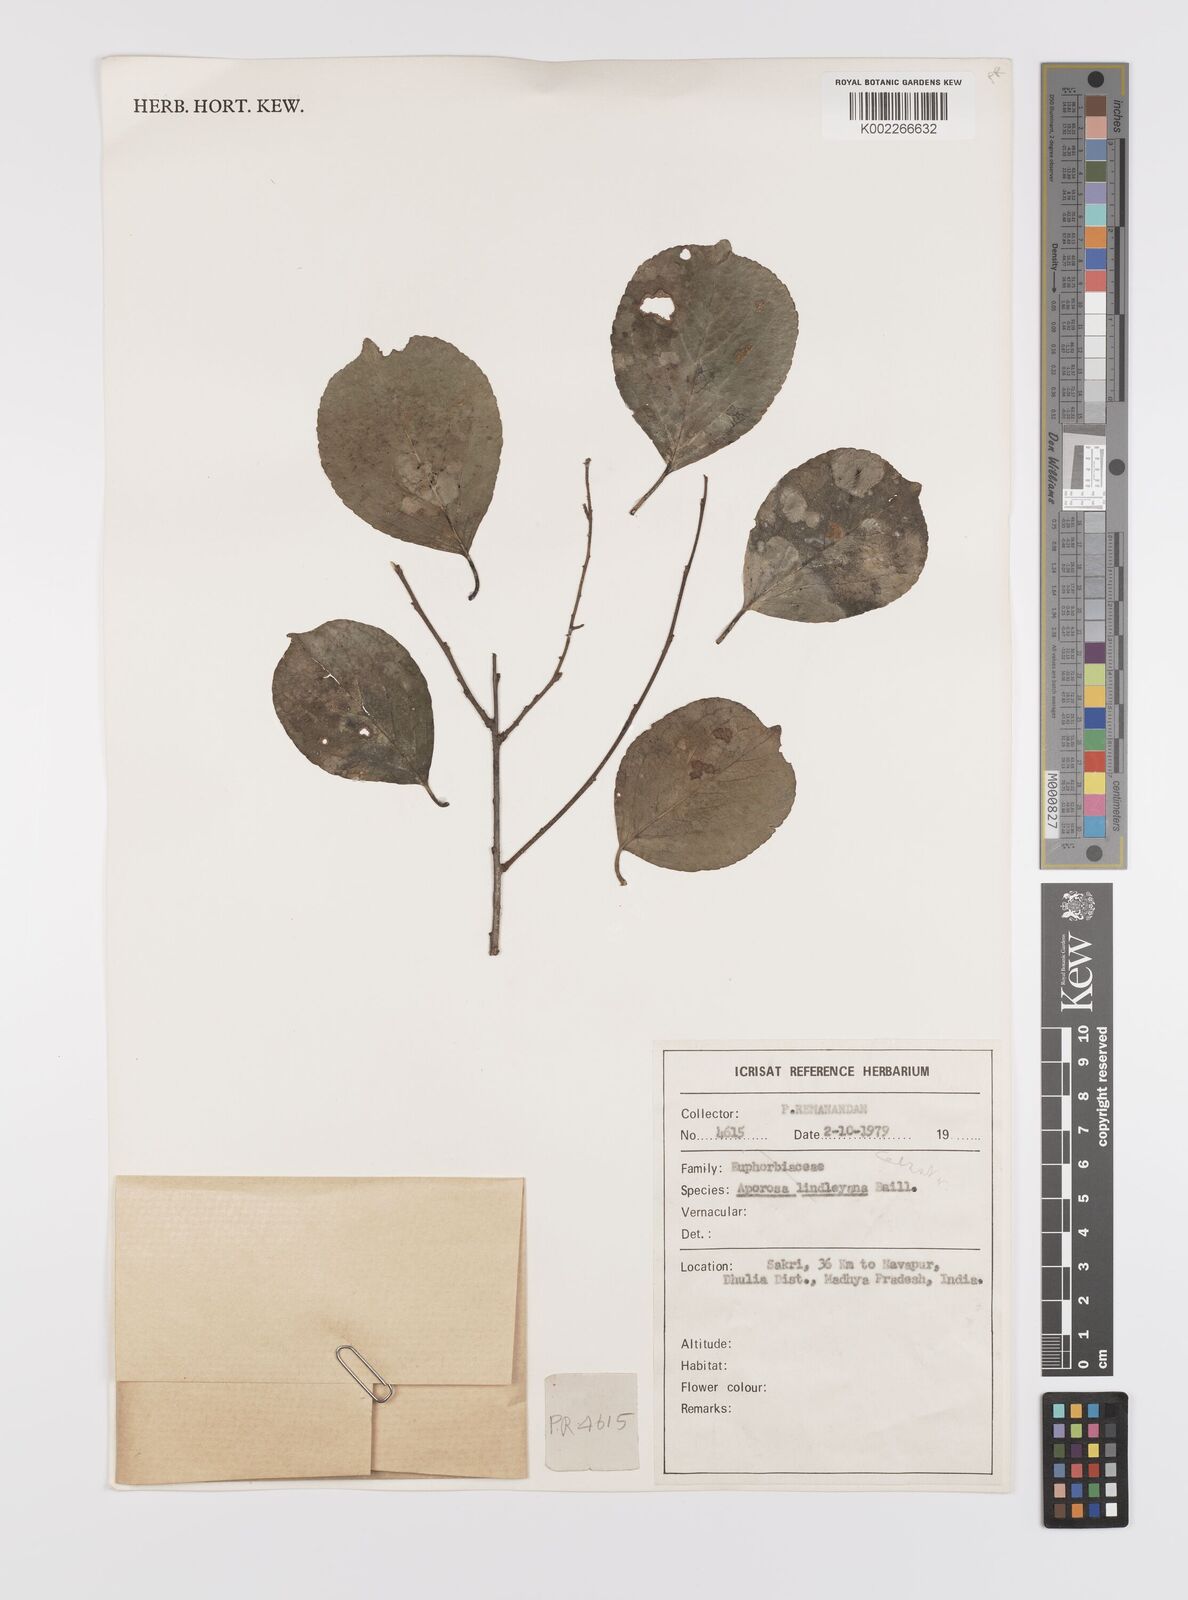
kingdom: Plantae
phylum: Tracheophyta
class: Magnoliopsida
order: Celastrales
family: Celastraceae
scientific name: Celastraceae
